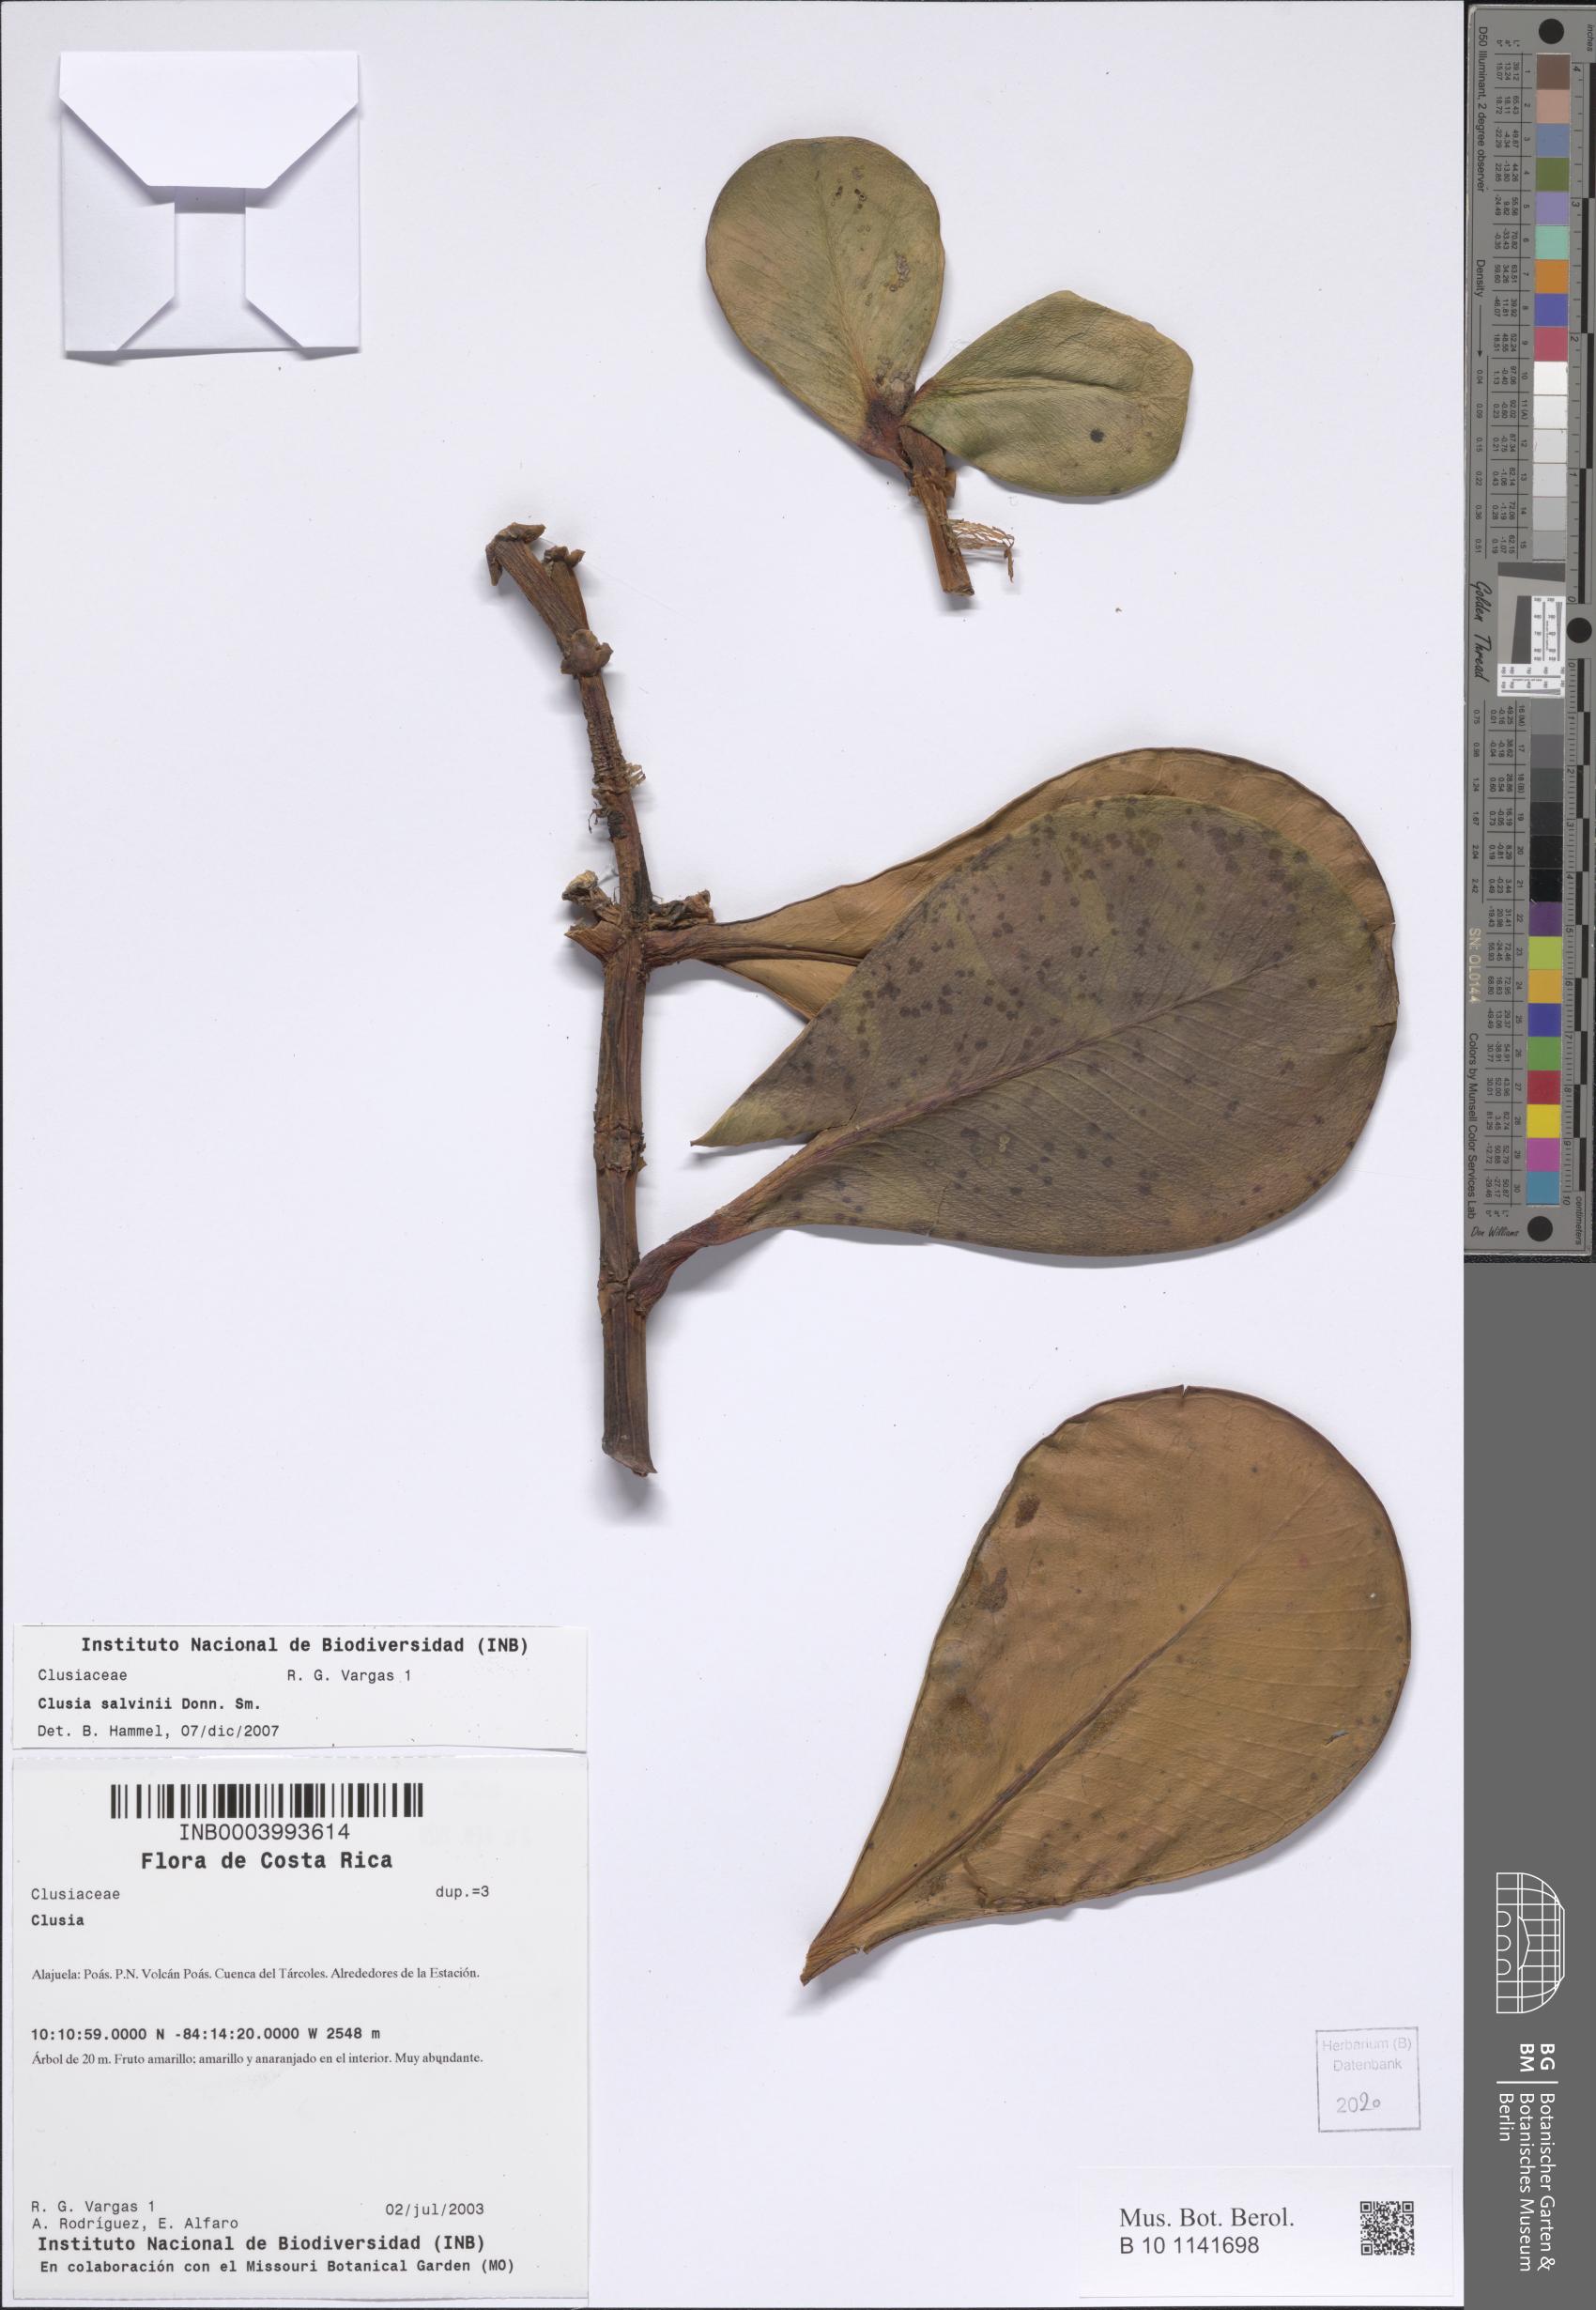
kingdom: Plantae
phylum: Tracheophyta
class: Magnoliopsida
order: Malpighiales
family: Clusiaceae
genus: Clusia
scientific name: Clusia salvinii
